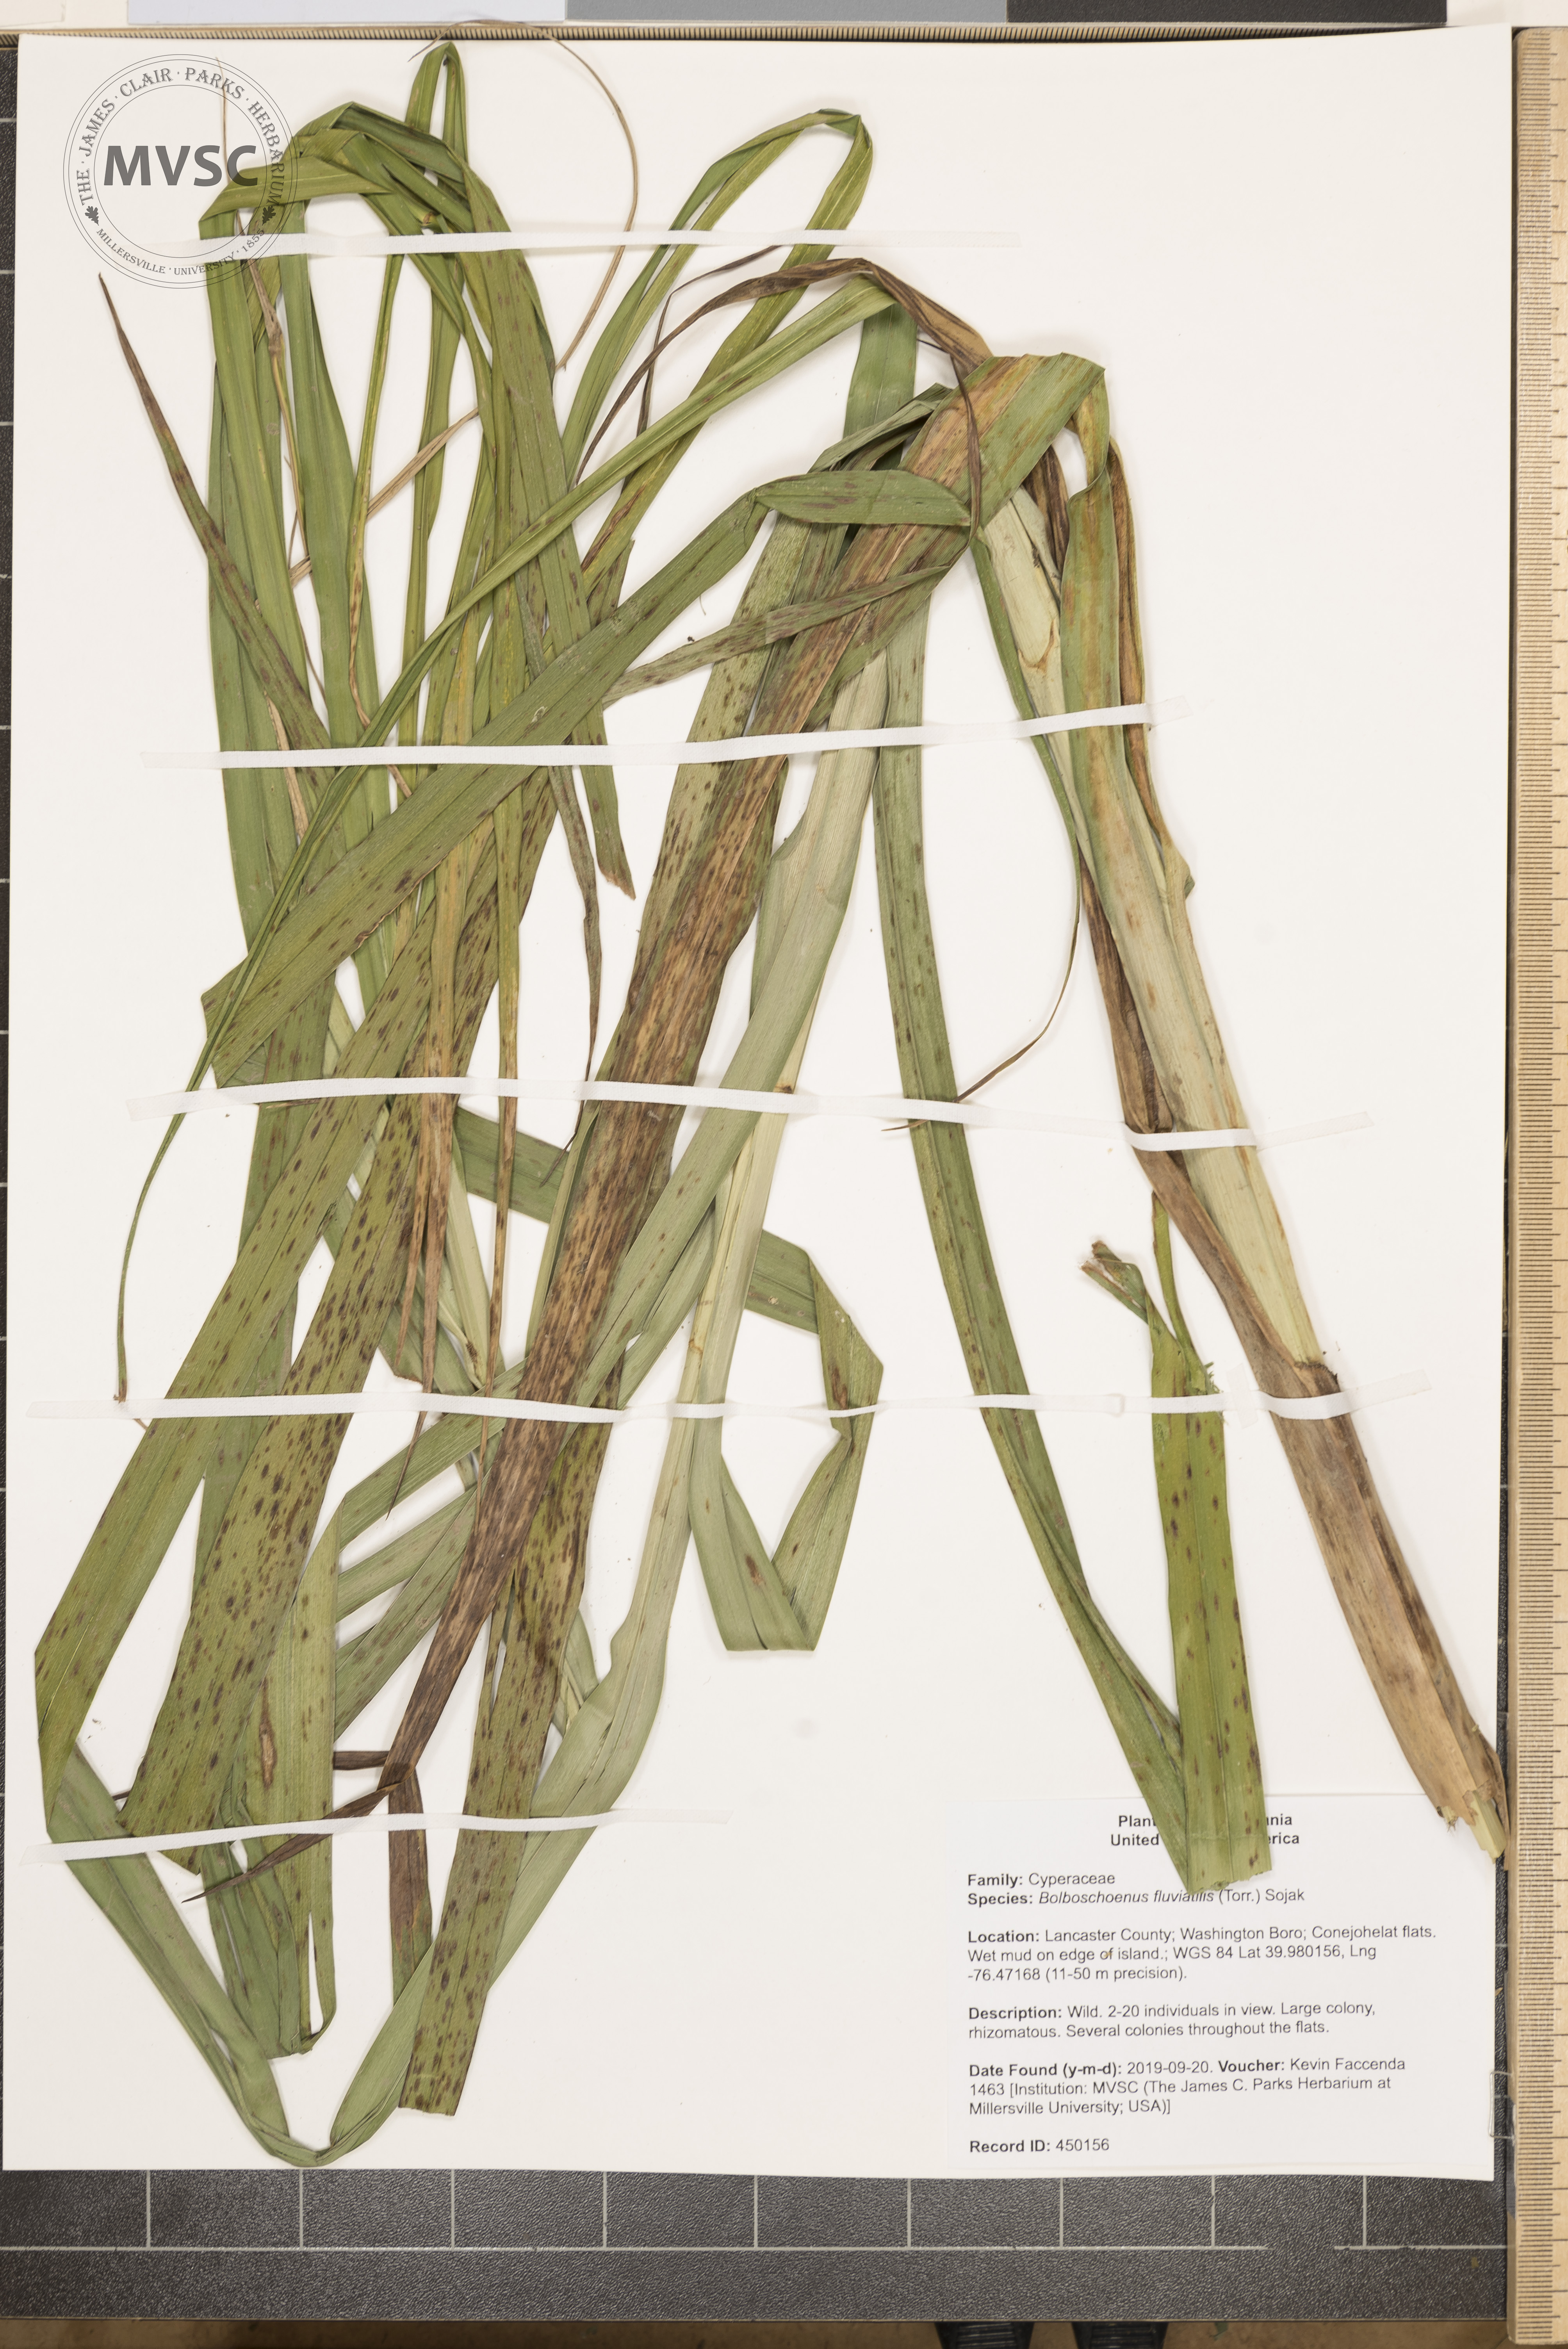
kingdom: Plantae
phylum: Tracheophyta
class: Liliopsida
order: Poales
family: Cyperaceae
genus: Bolboschoenus
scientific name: Bolboschoenus fluviatilis
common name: River bulrush
